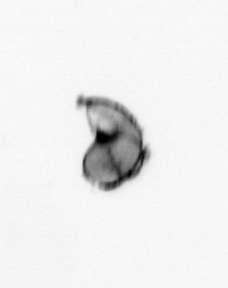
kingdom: Animalia
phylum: Mollusca
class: Gastropoda
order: Pteropoda
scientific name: Pteropoda
